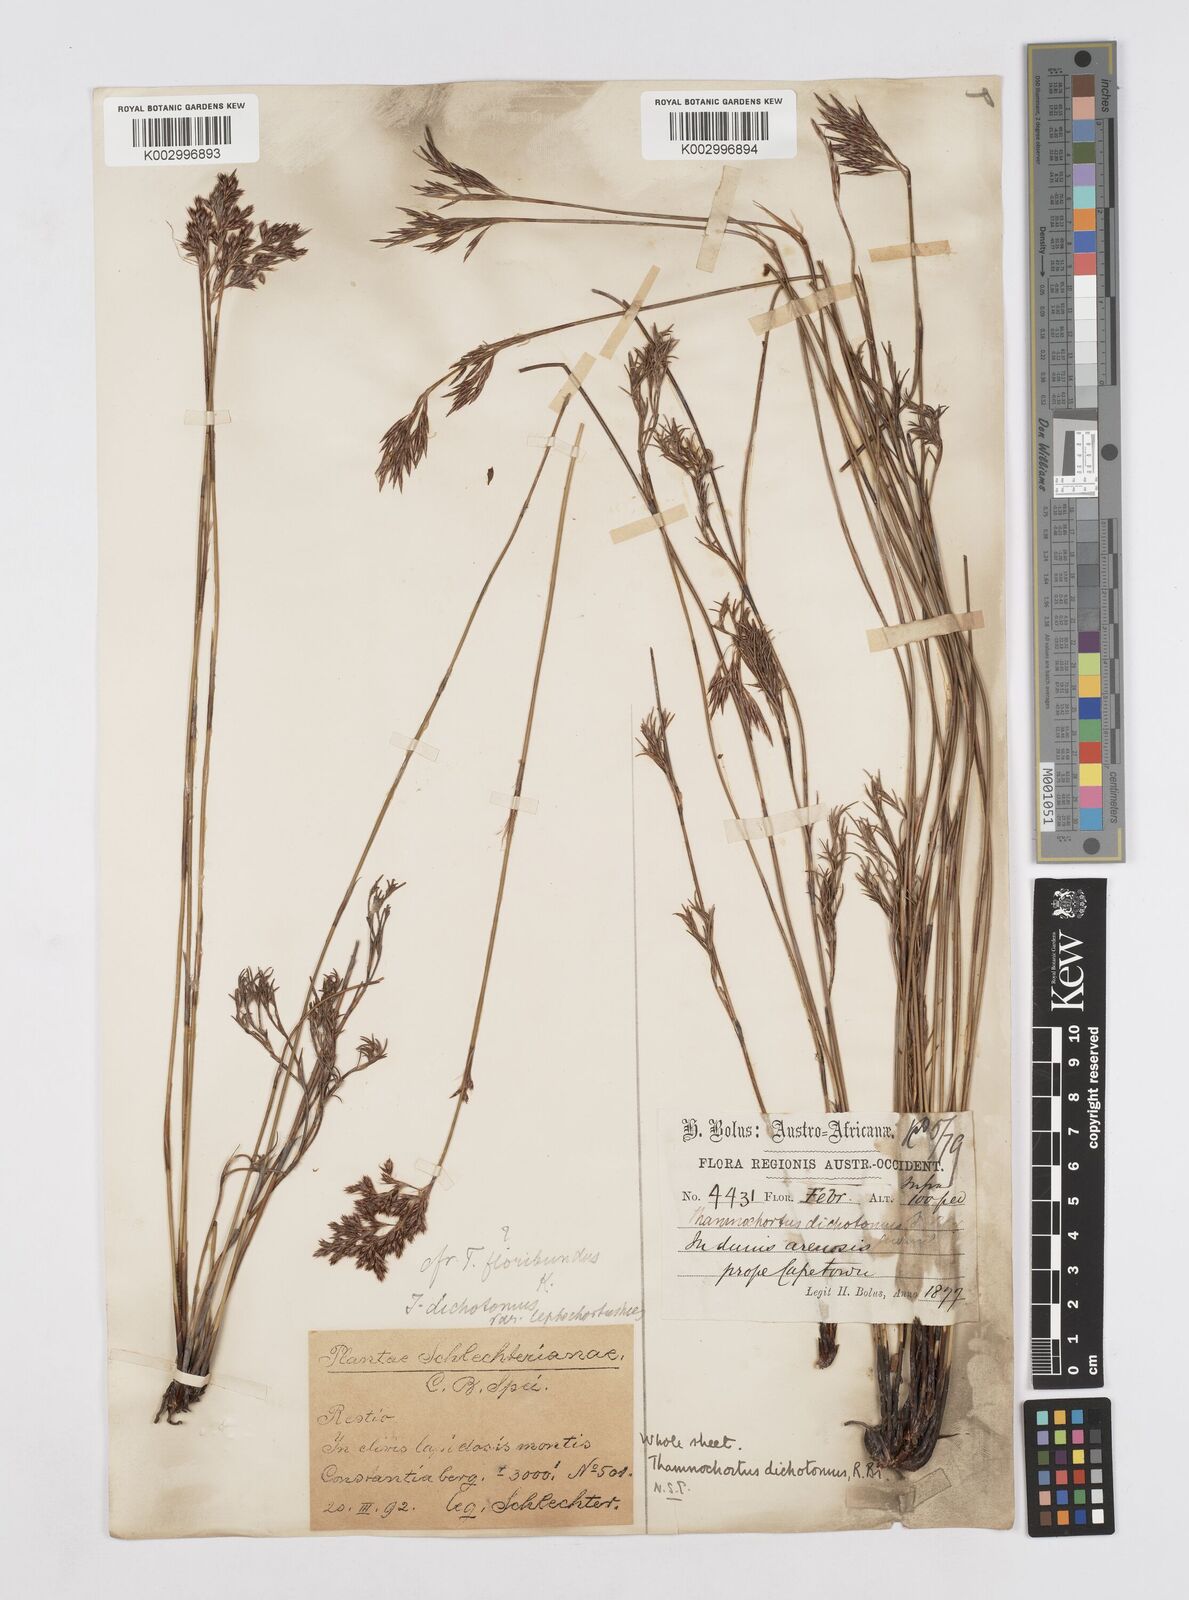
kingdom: Plantae
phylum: Tracheophyta
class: Liliopsida
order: Poales
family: Restionaceae
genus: Thamnochortus
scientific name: Thamnochortus lucens
